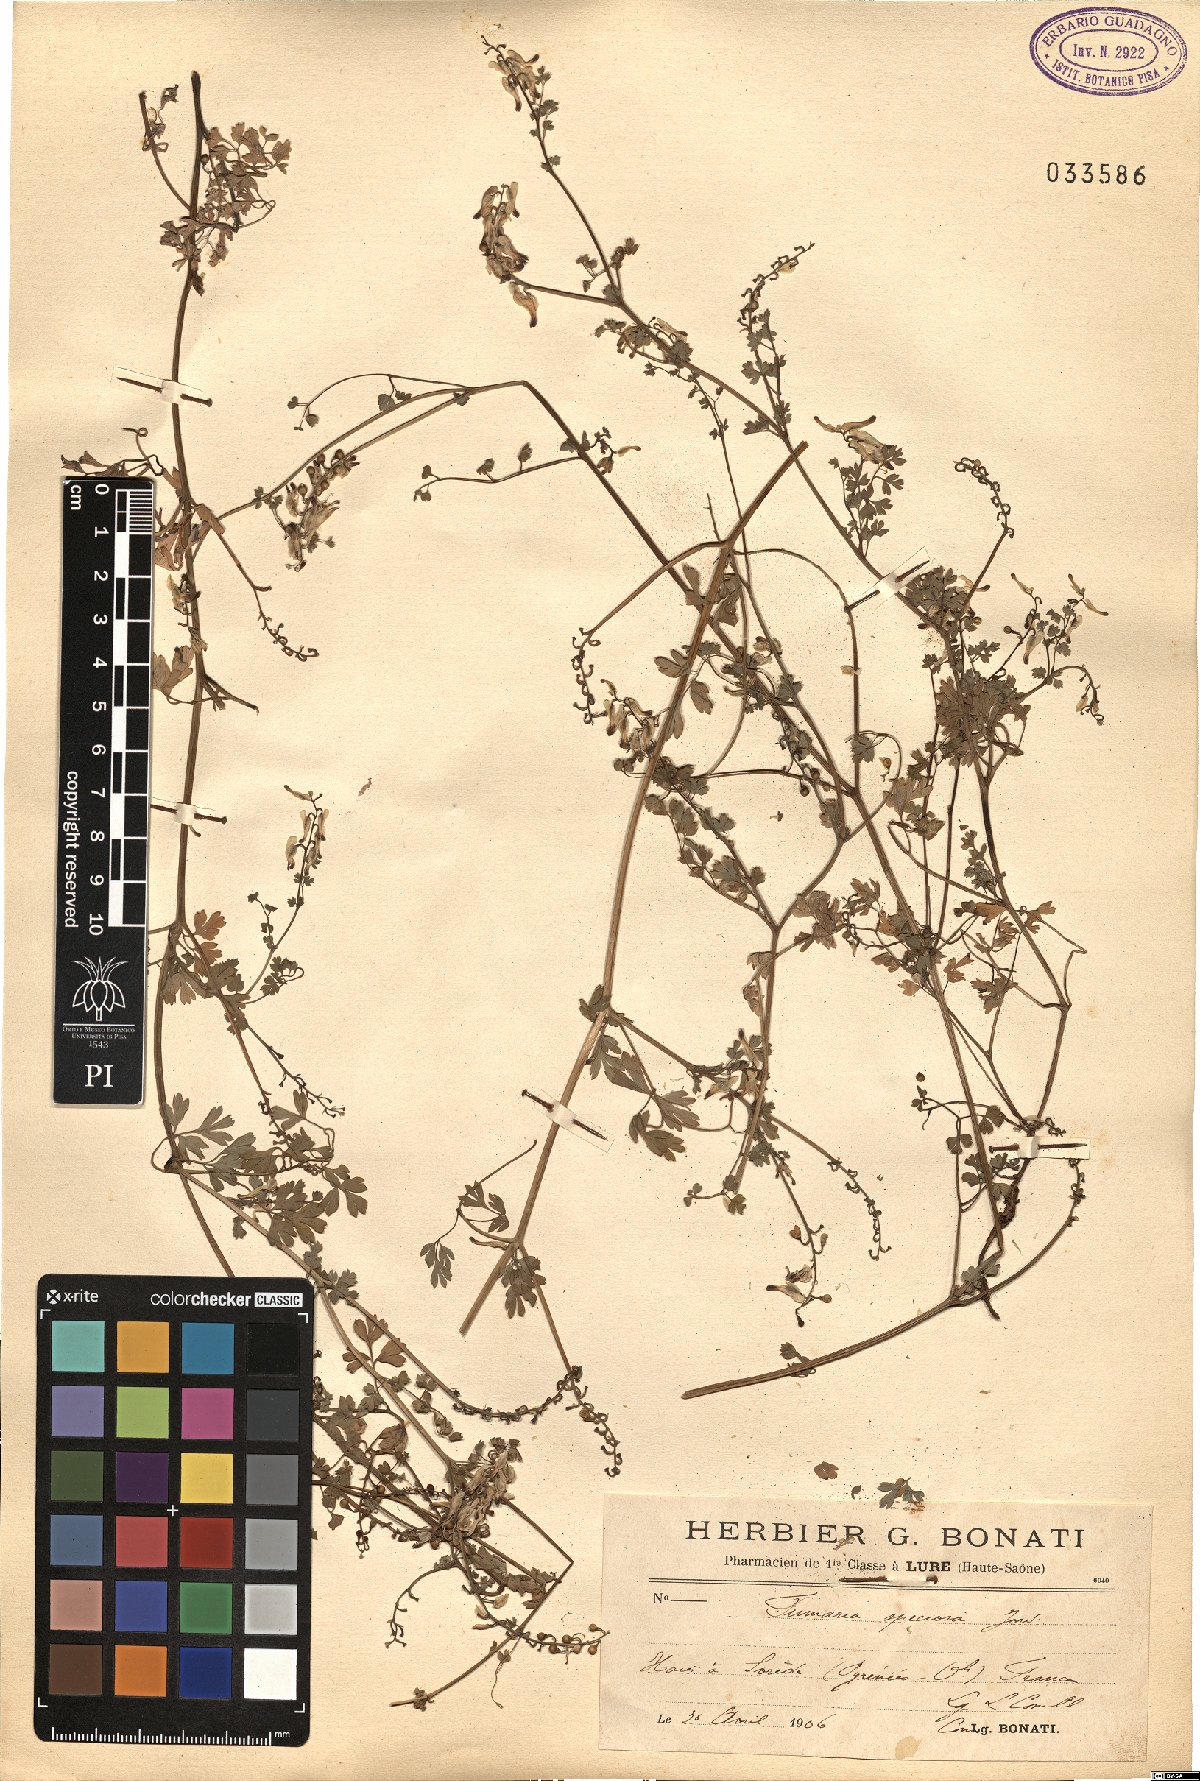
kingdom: Plantae
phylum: Tracheophyta
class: Magnoliopsida
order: Ranunculales
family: Papaveraceae
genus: Fumaria
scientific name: Fumaria capreolata
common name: White ramping-fumitory
